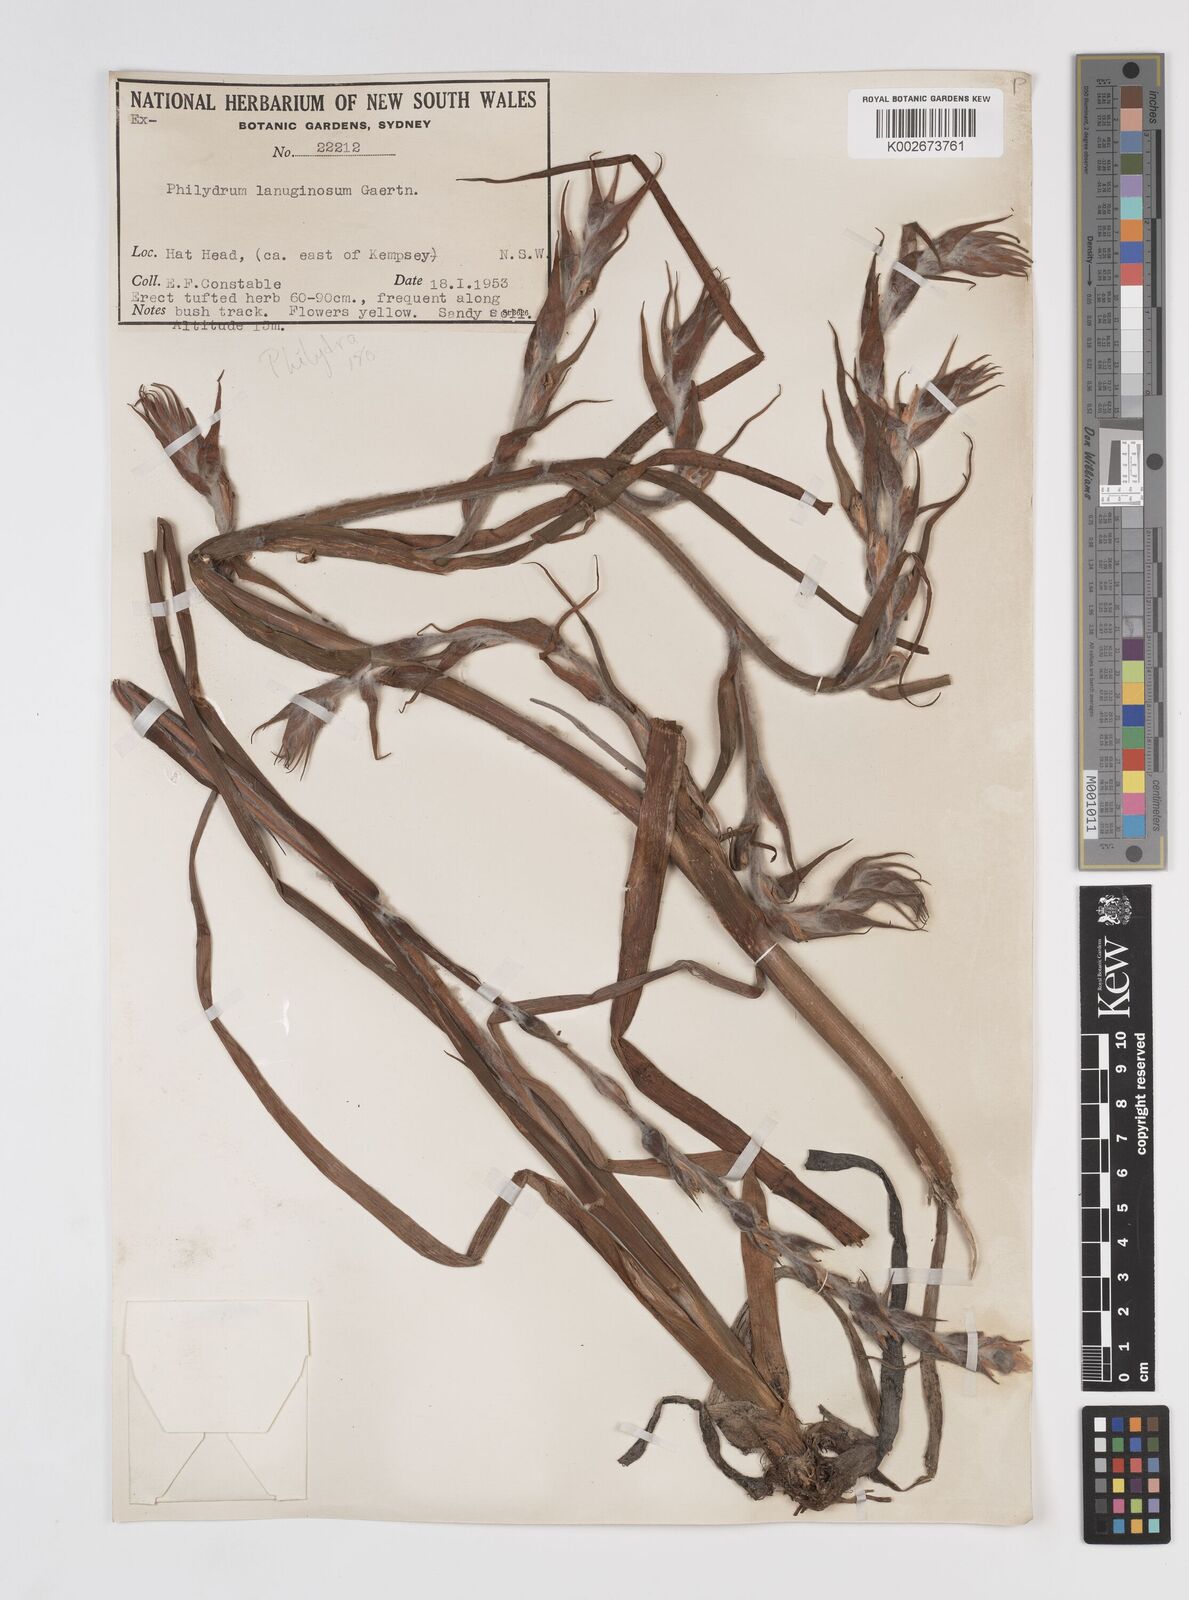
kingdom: Plantae
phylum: Tracheophyta
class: Liliopsida
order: Commelinales
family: Philydraceae
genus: Philydrum
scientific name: Philydrum lanuginosum
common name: Woolly frog's mouth
